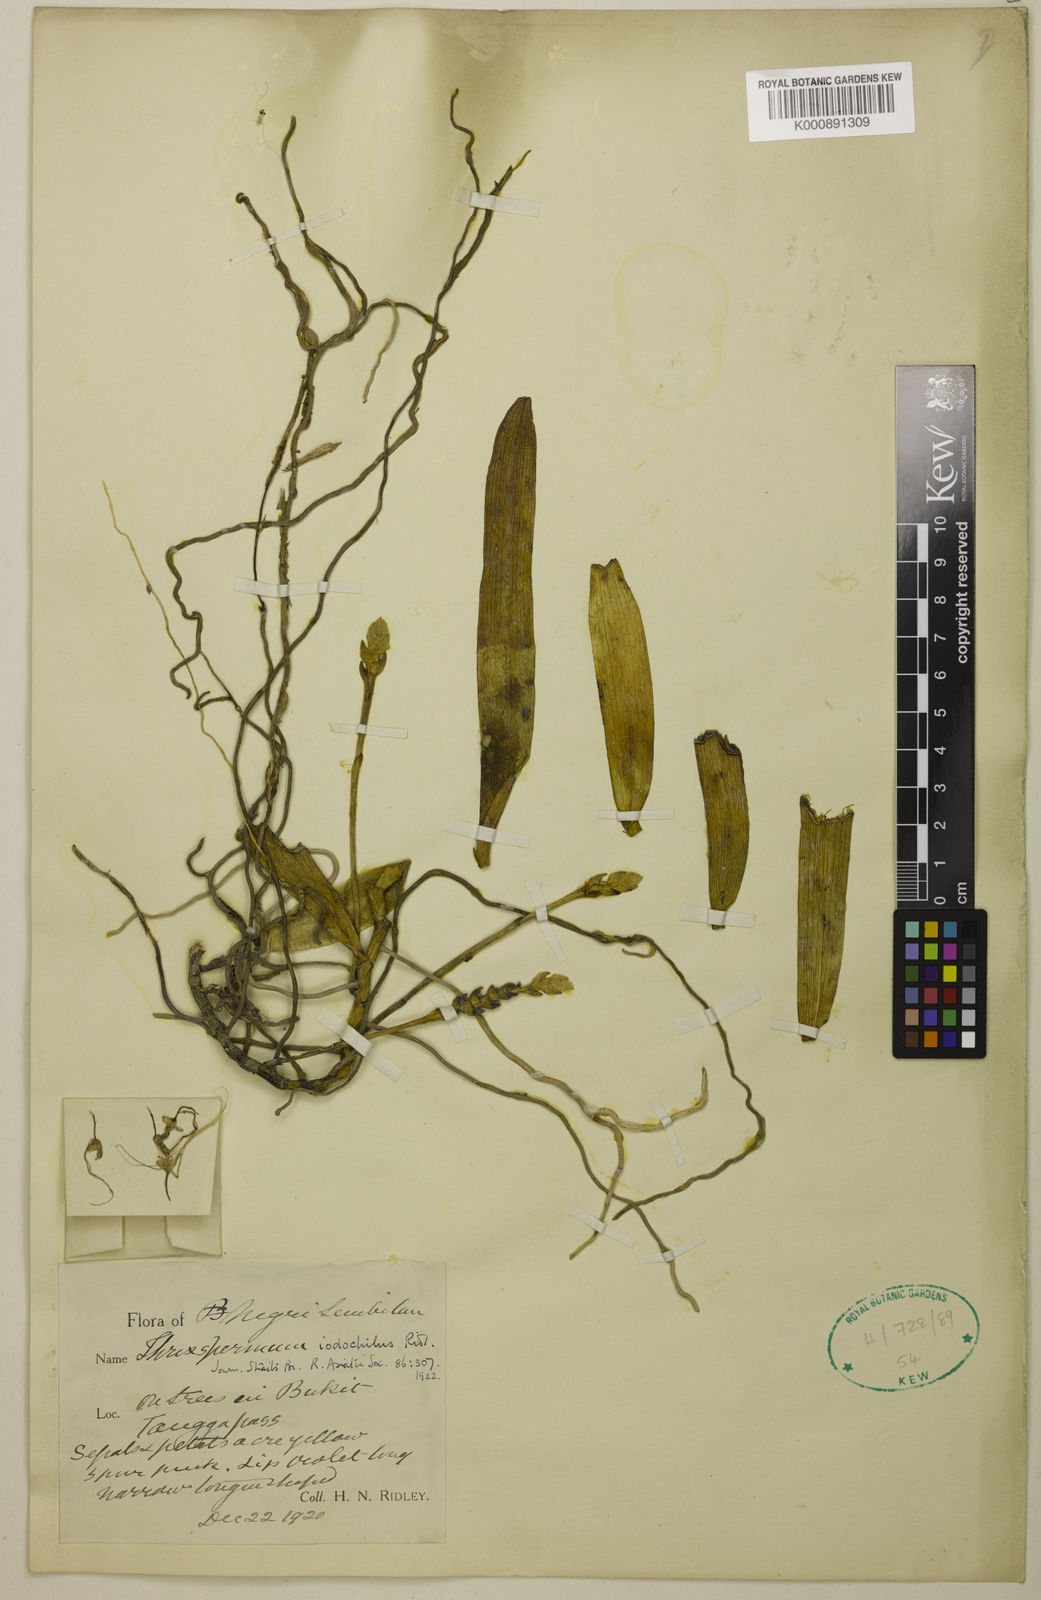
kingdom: Plantae
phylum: Tracheophyta
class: Liliopsida
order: Asparagales
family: Orchidaceae
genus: Thrixspermum
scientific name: Thrixspermum iodochilus
